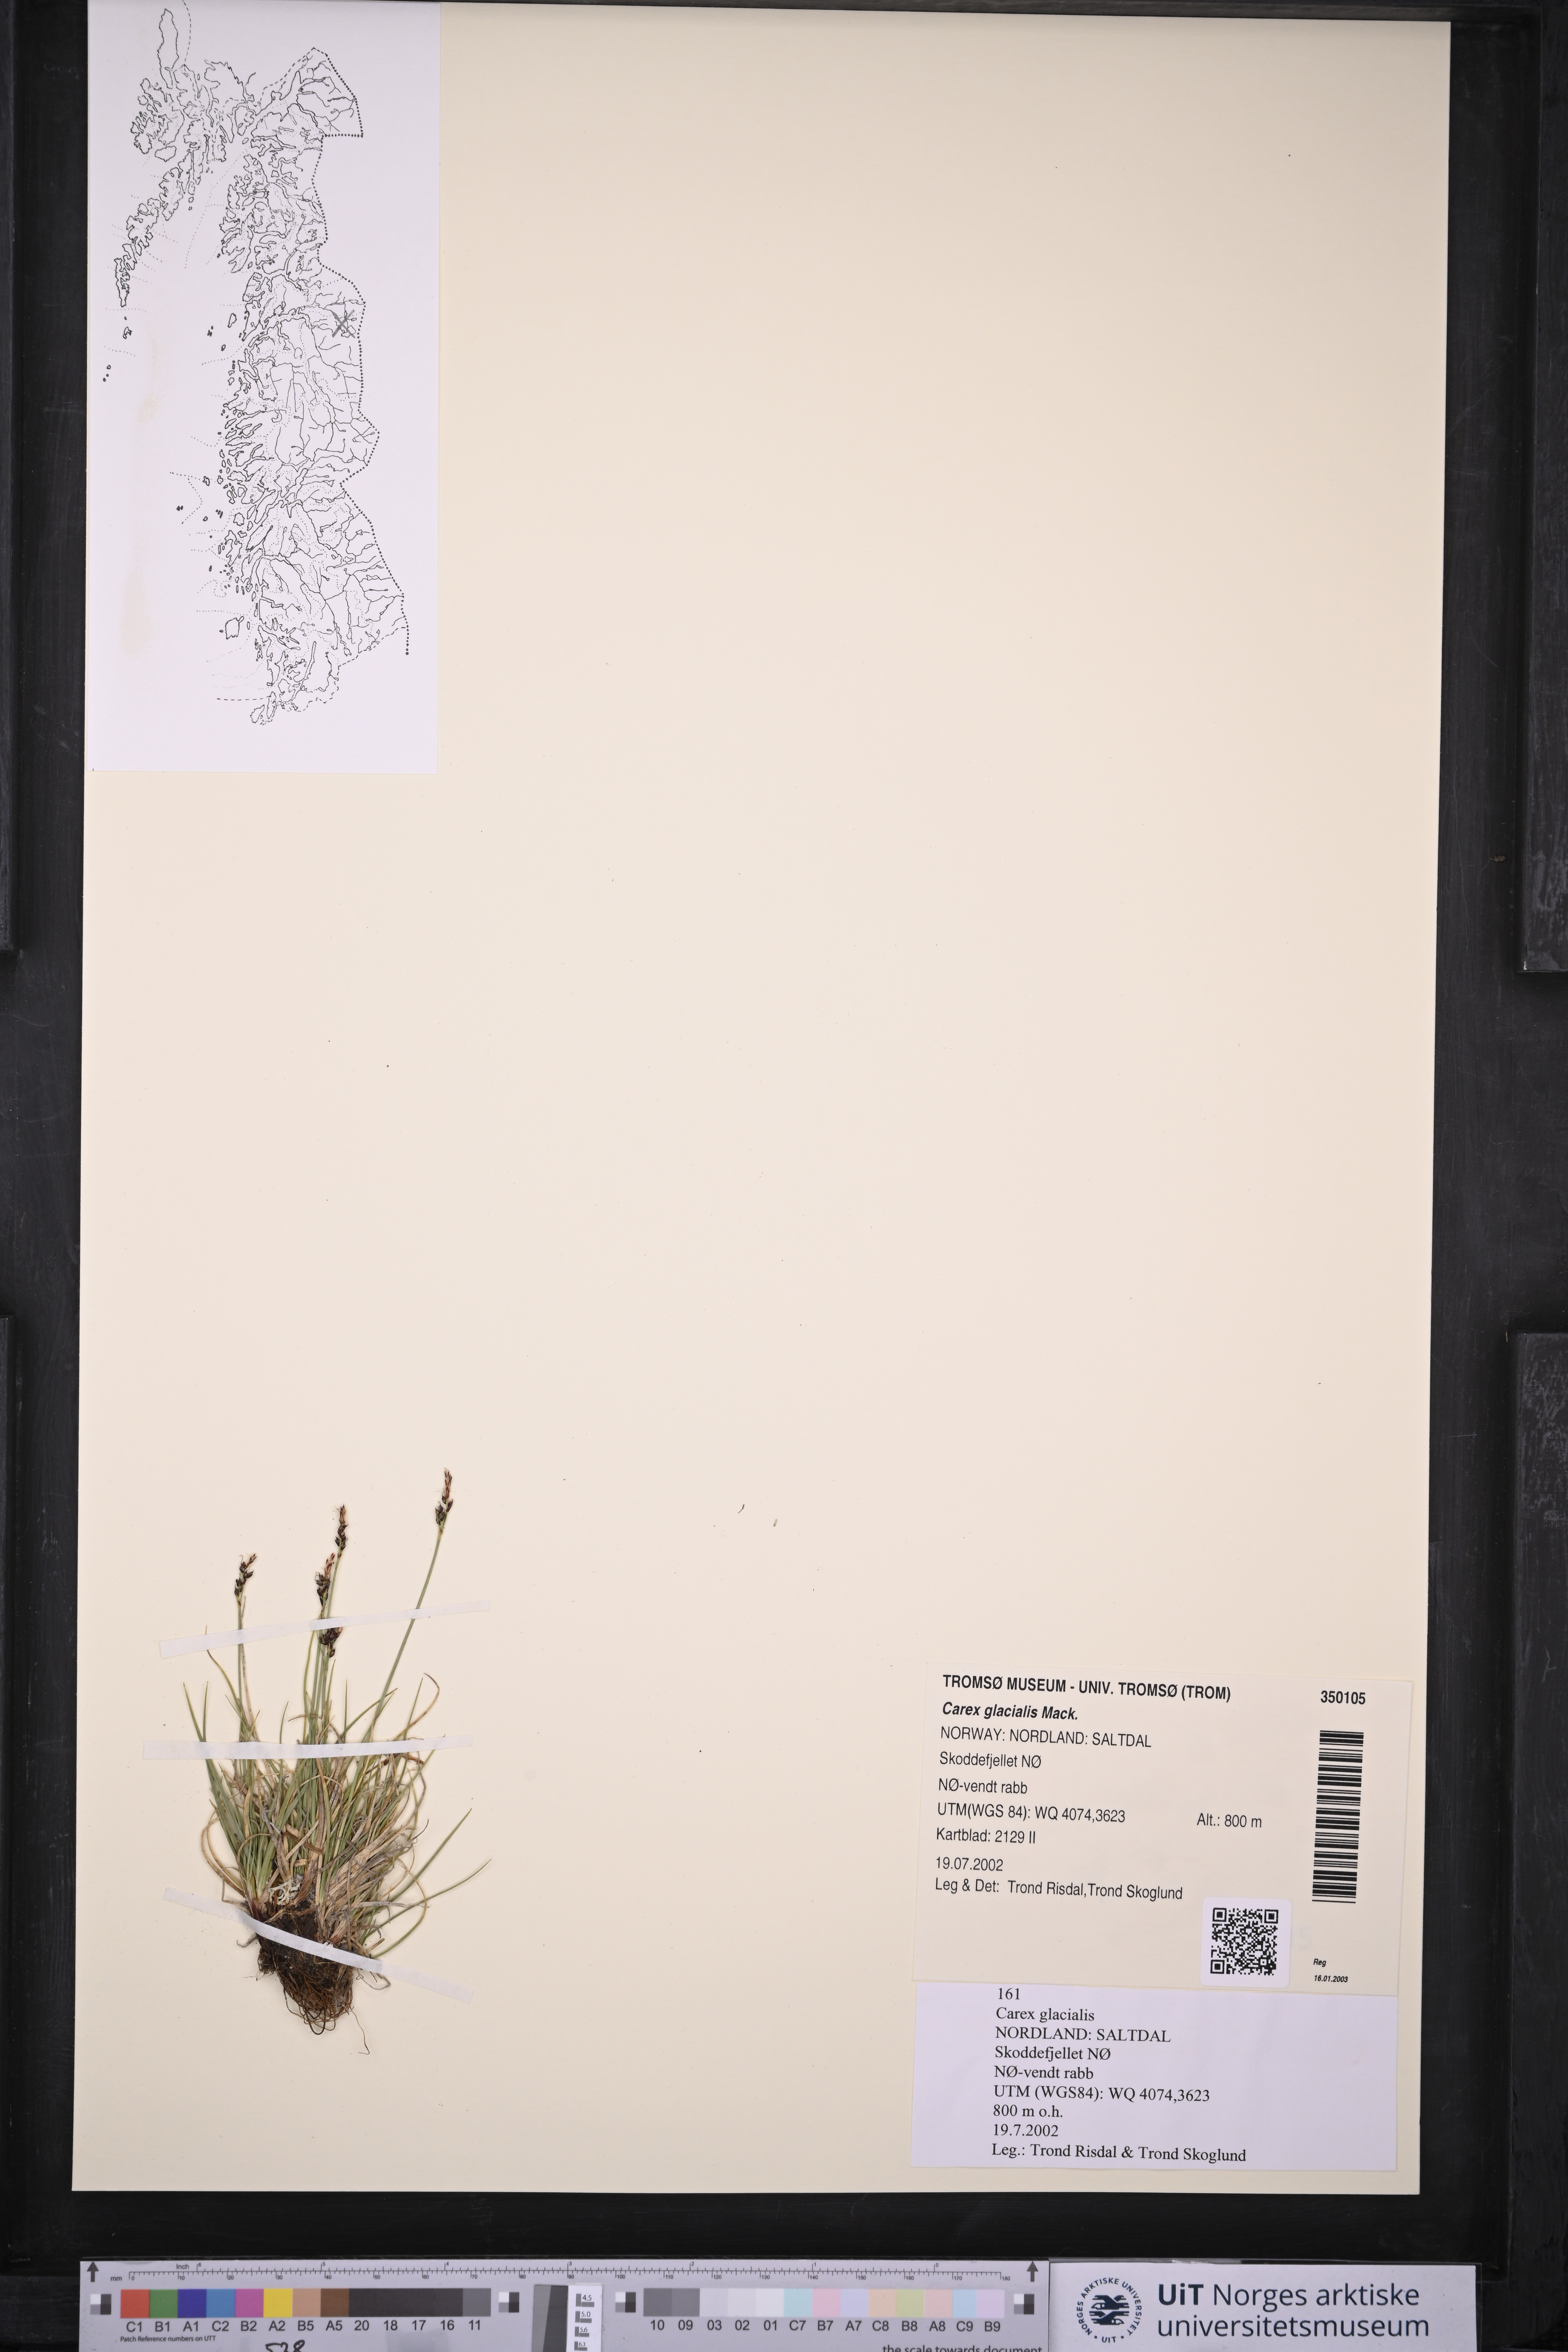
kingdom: Plantae
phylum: Tracheophyta
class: Liliopsida
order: Poales
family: Cyperaceae
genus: Carex
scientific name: Carex glacialis
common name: Newfoundland sedge
